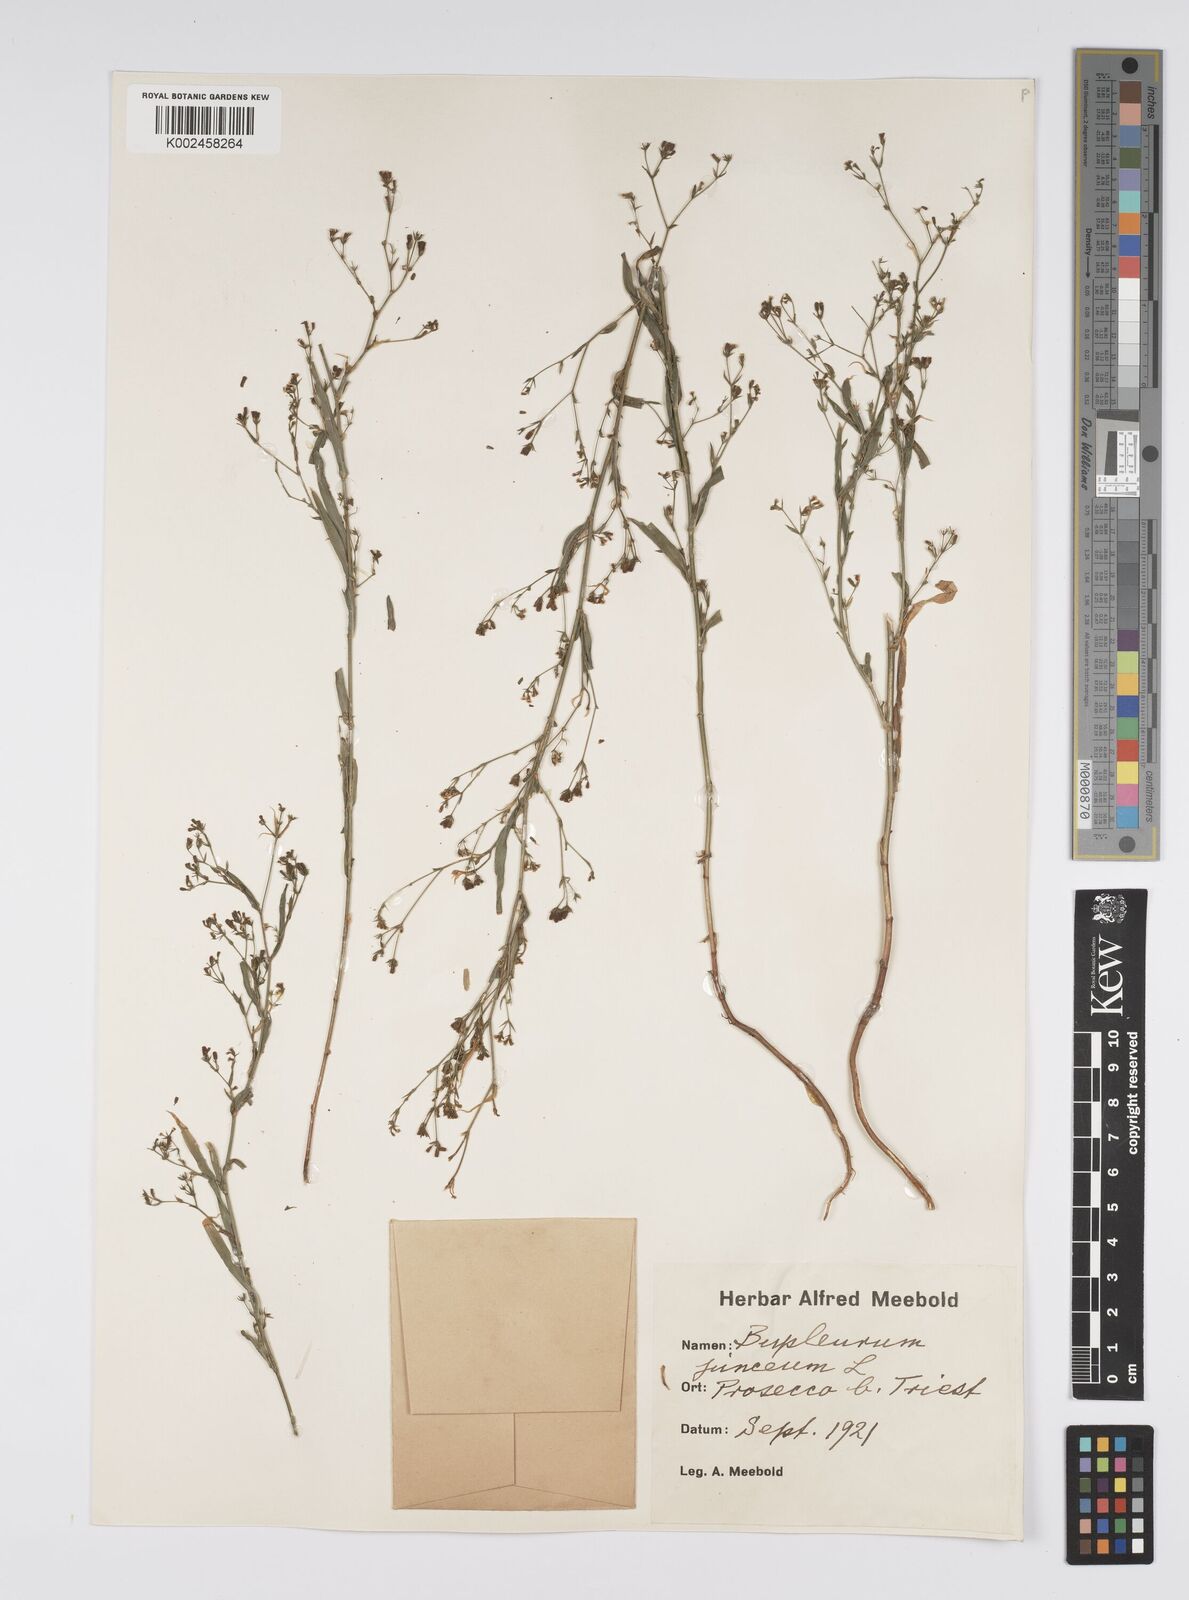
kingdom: Plantae
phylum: Tracheophyta
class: Magnoliopsida
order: Apiales
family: Apiaceae
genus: Bupleurum
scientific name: Bupleurum praealtum
